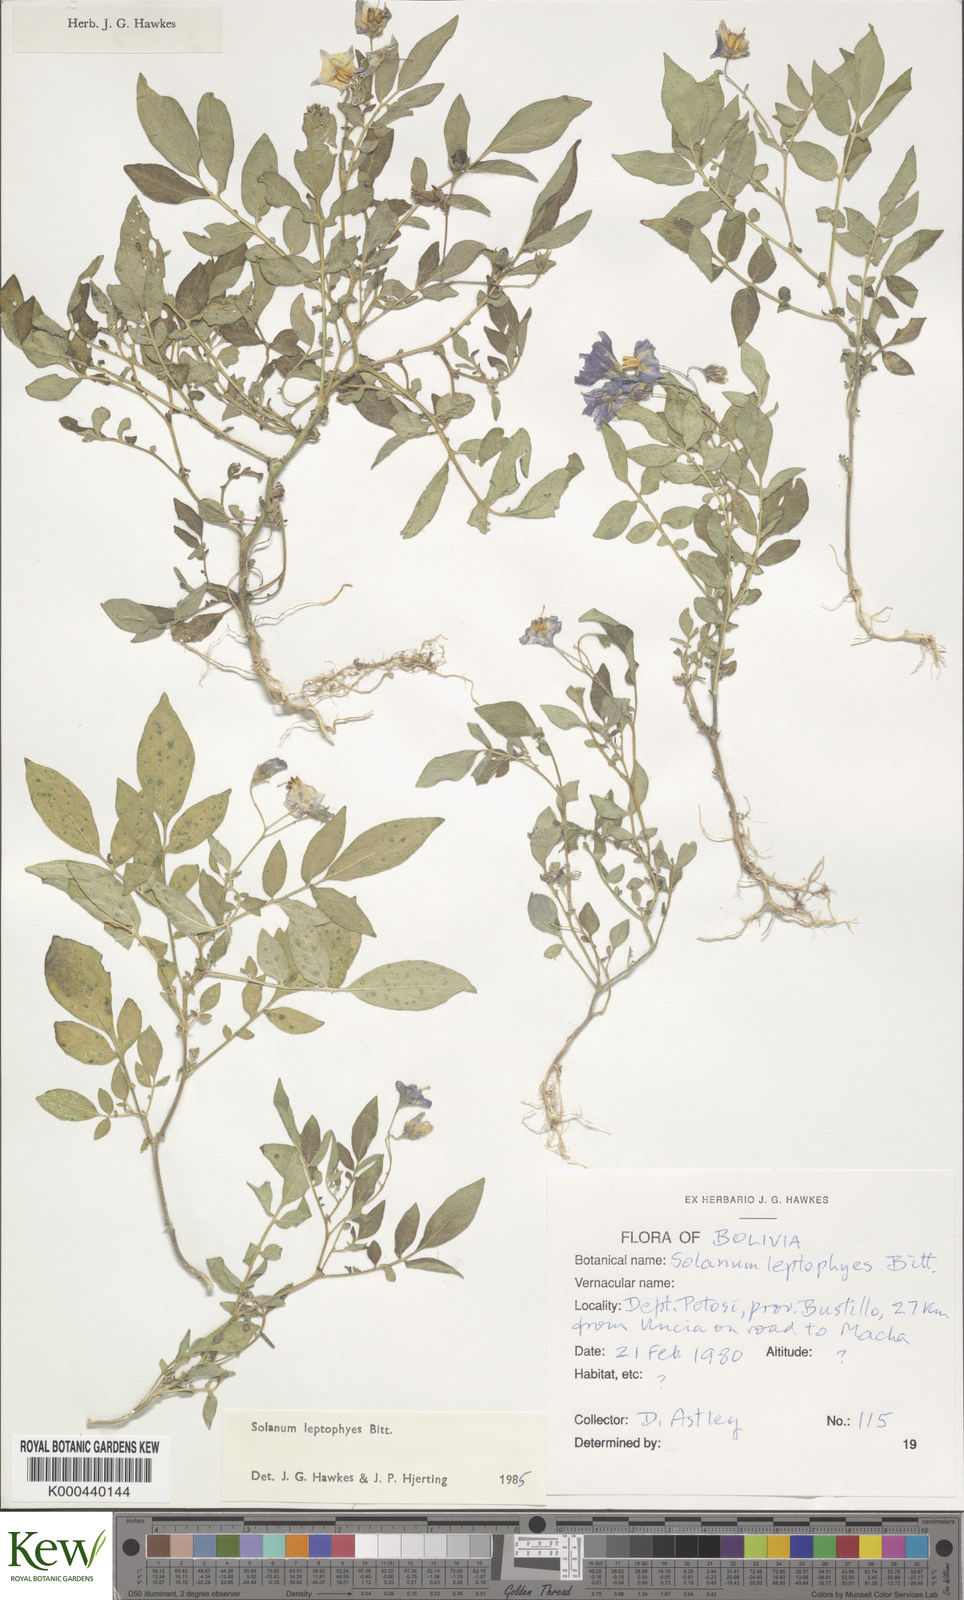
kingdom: Plantae
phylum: Tracheophyta
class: Magnoliopsida
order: Solanales
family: Solanaceae
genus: Solanum
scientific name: Solanum brevicaule
